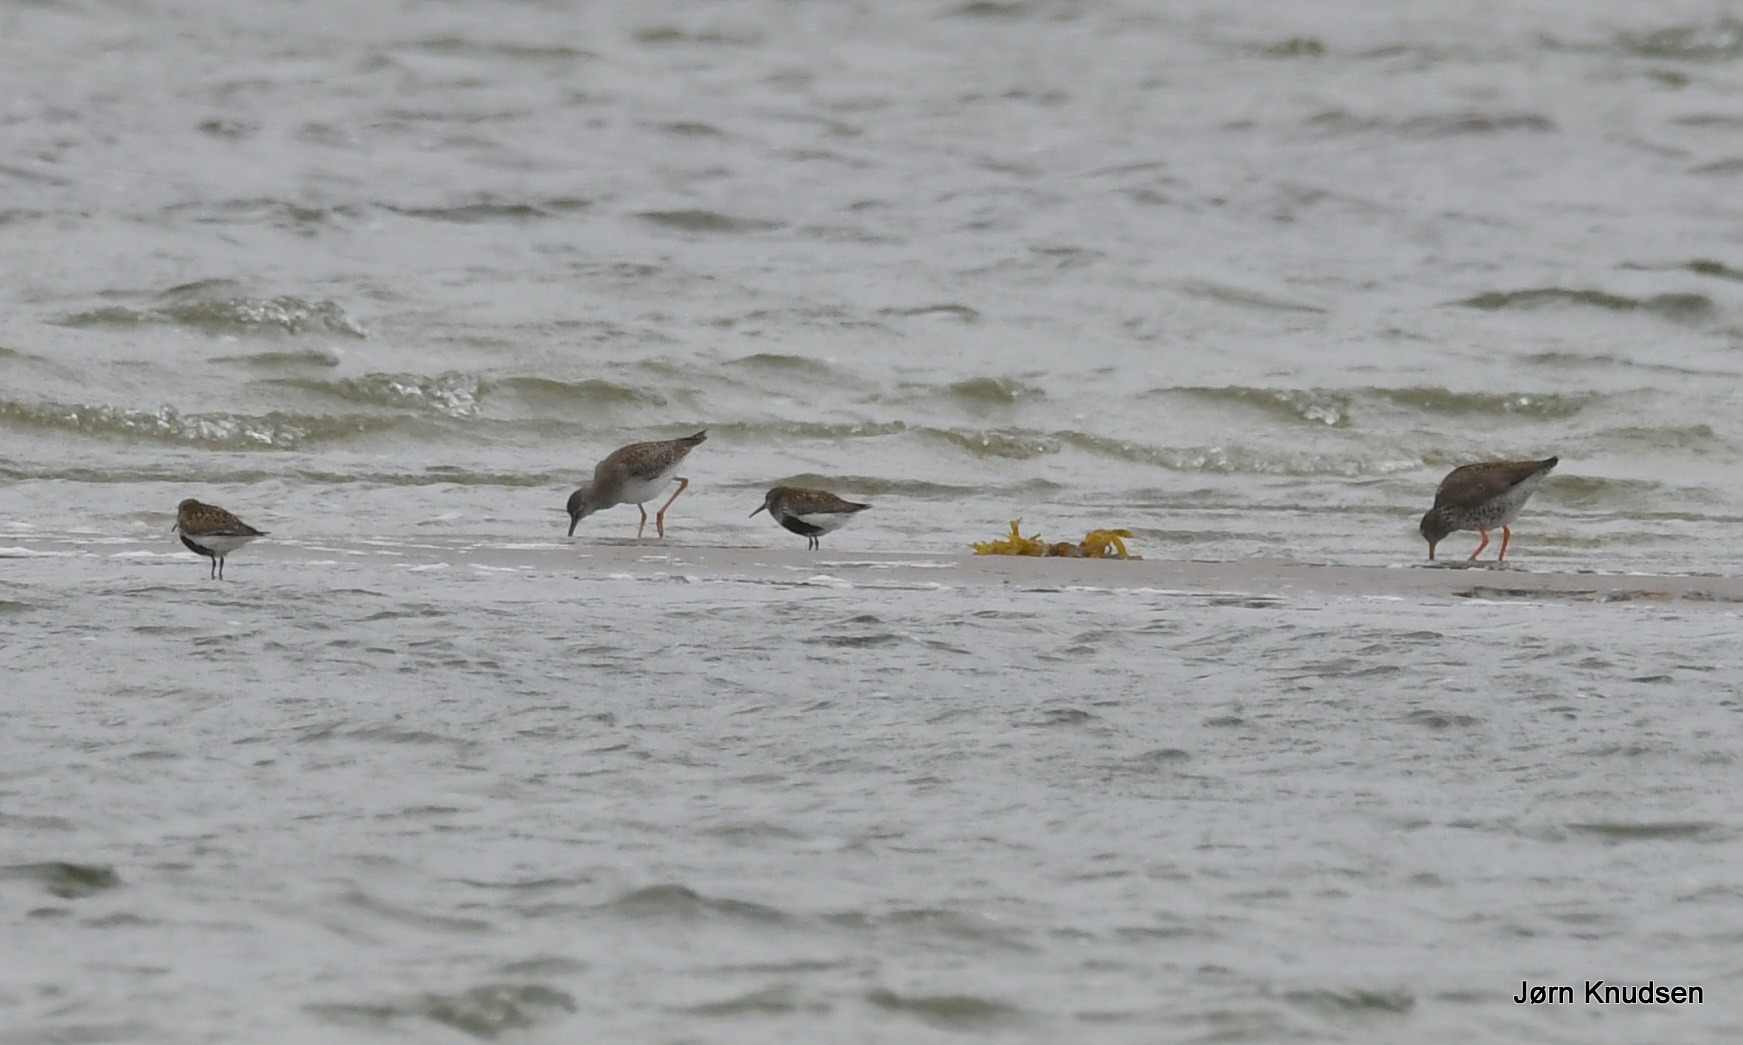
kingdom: Animalia
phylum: Chordata
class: Aves
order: Charadriiformes
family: Scolopacidae
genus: Calidris
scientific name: Calidris alpina
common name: Almindelig ryle
